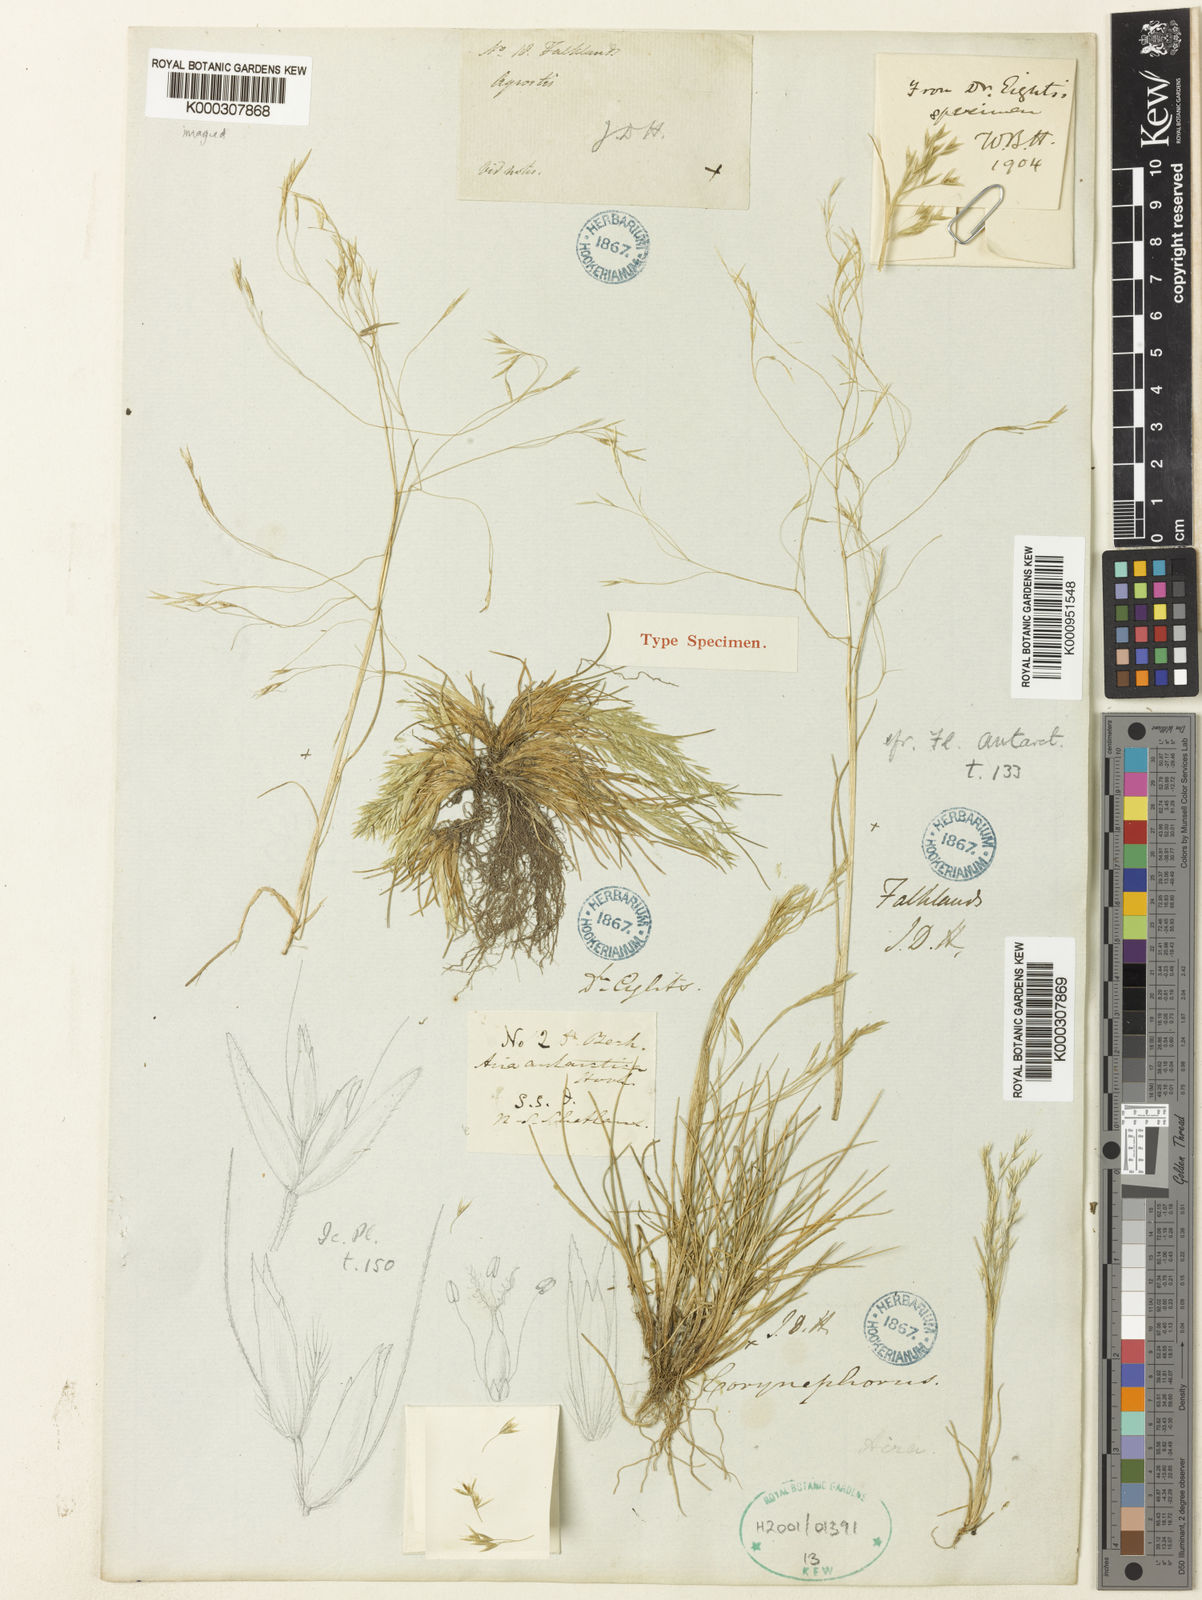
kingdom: Plantae
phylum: Tracheophyta
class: Liliopsida
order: Poales
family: Poaceae
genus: Deschampsia
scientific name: Deschampsia
